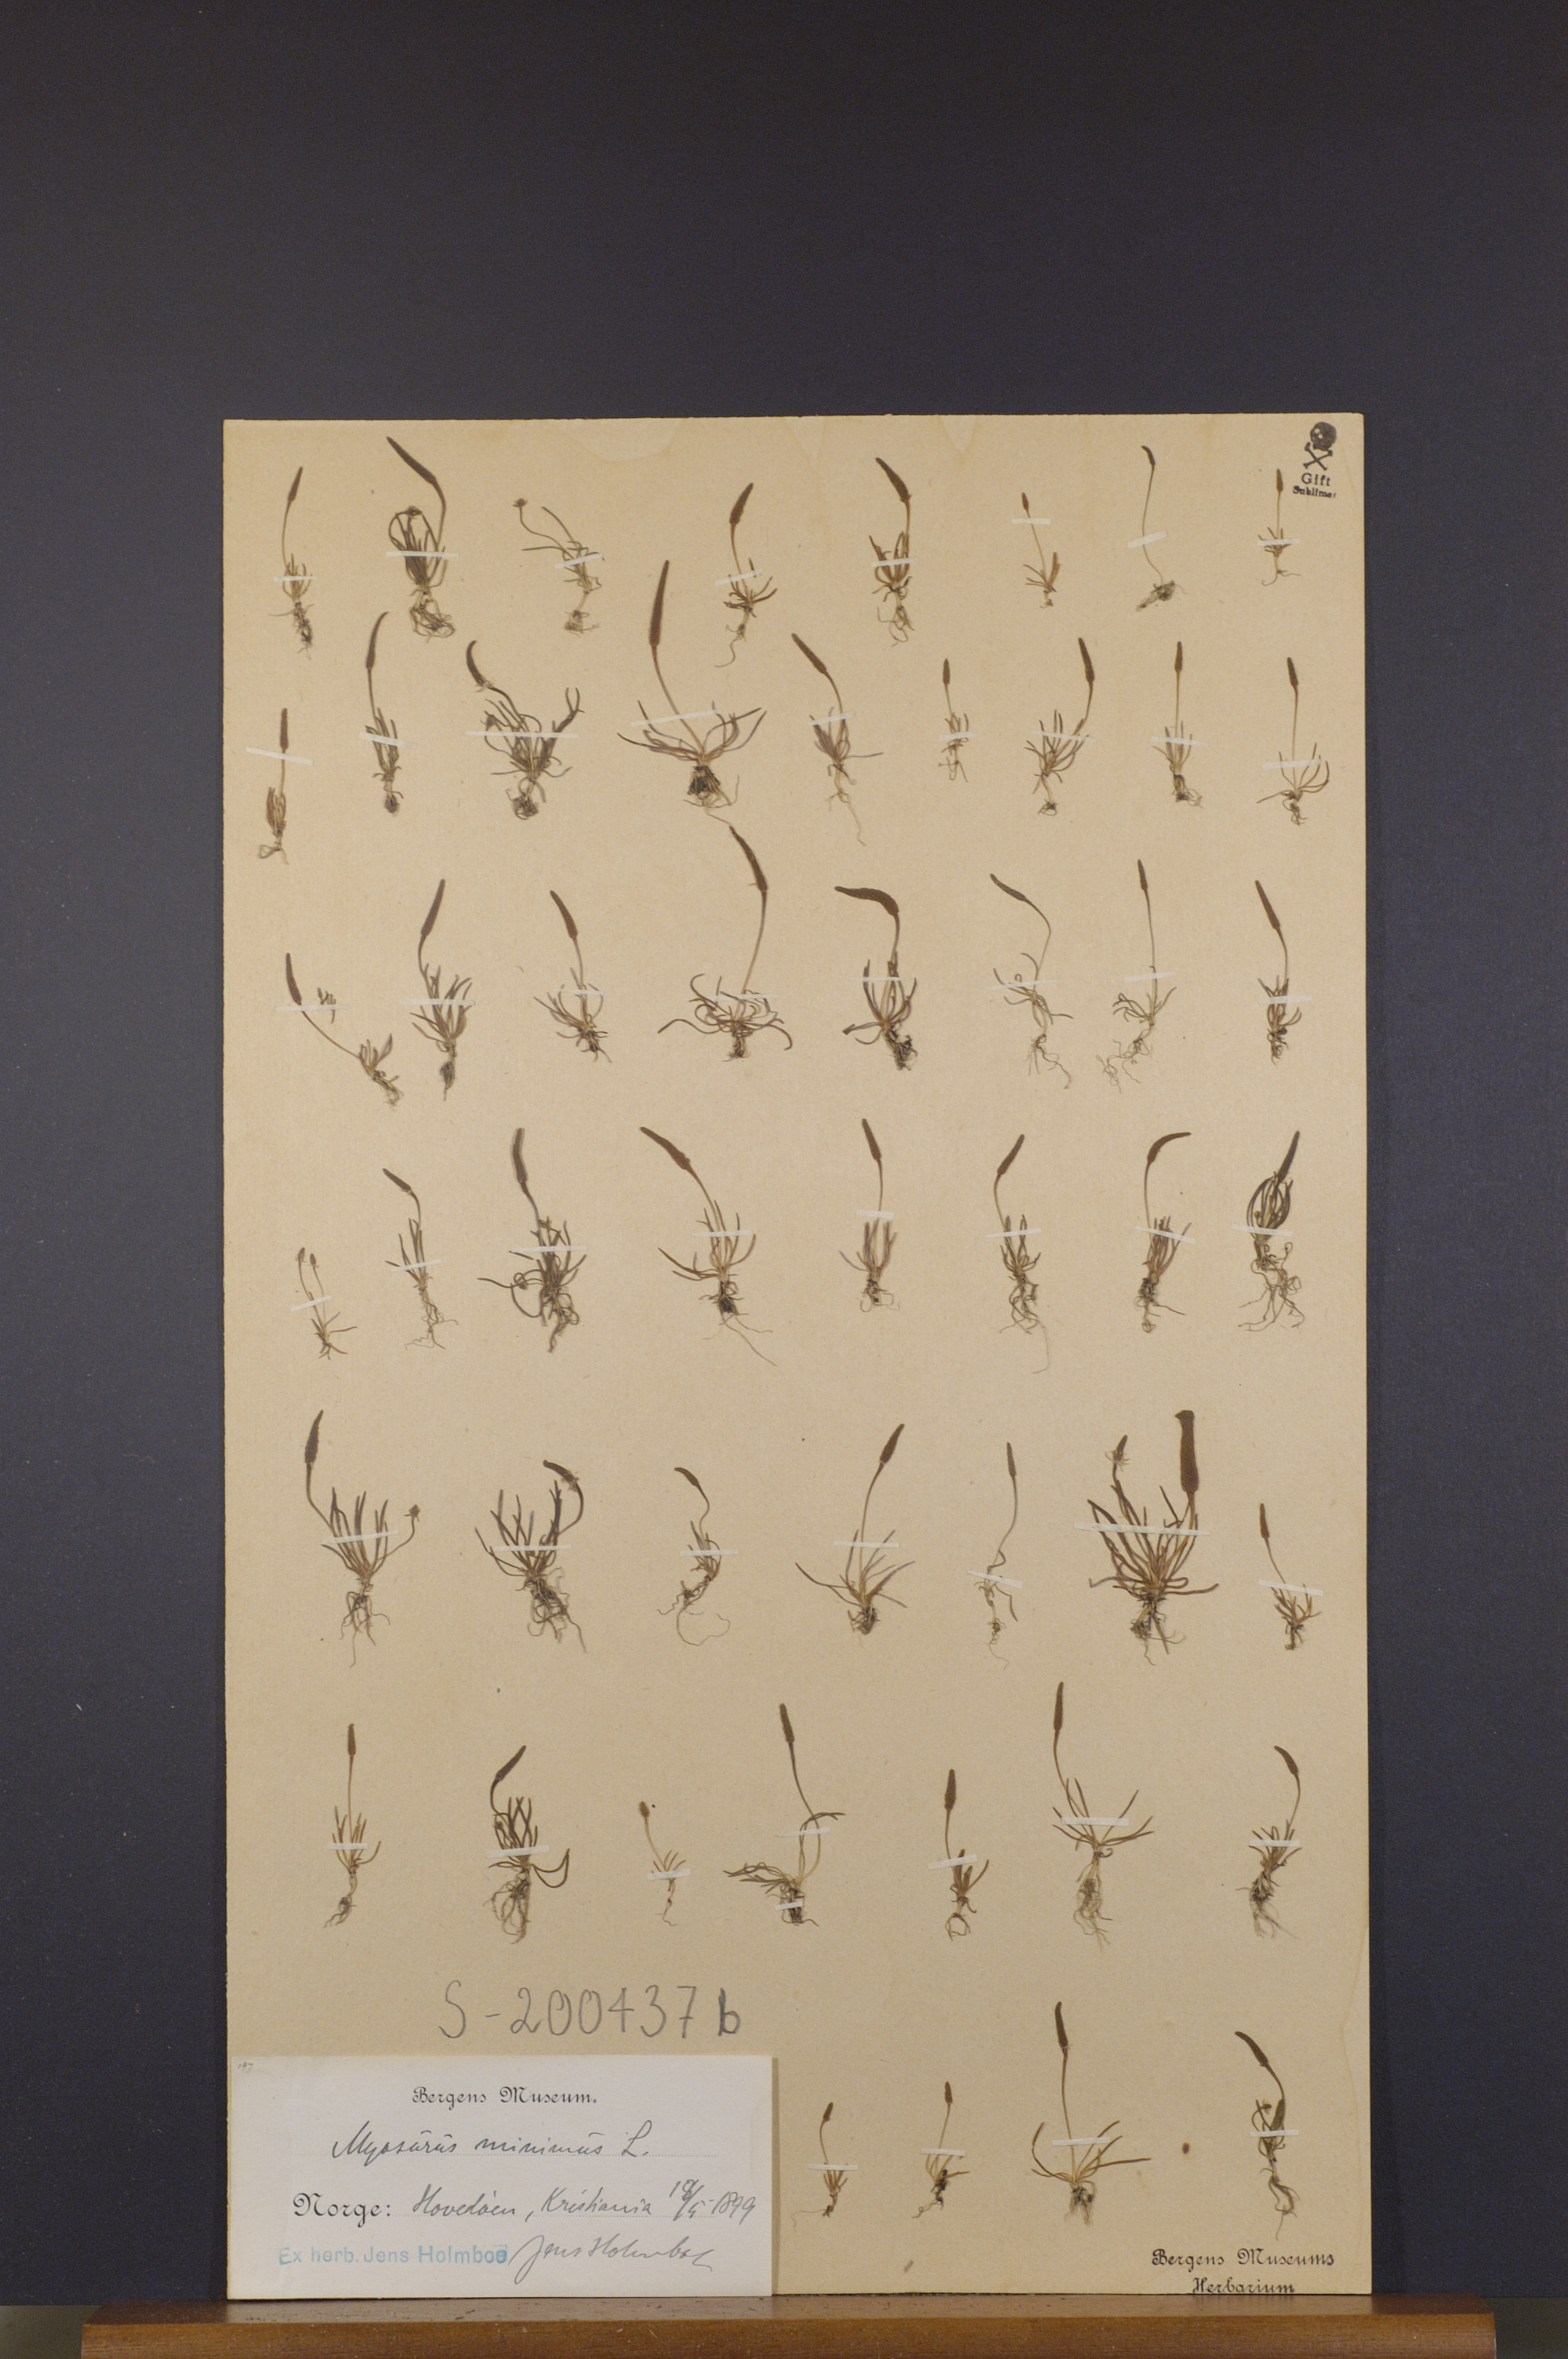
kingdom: Plantae
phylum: Tracheophyta
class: Magnoliopsida
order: Ranunculales
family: Ranunculaceae
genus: Myosurus
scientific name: Myosurus minimus
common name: Mousetail
